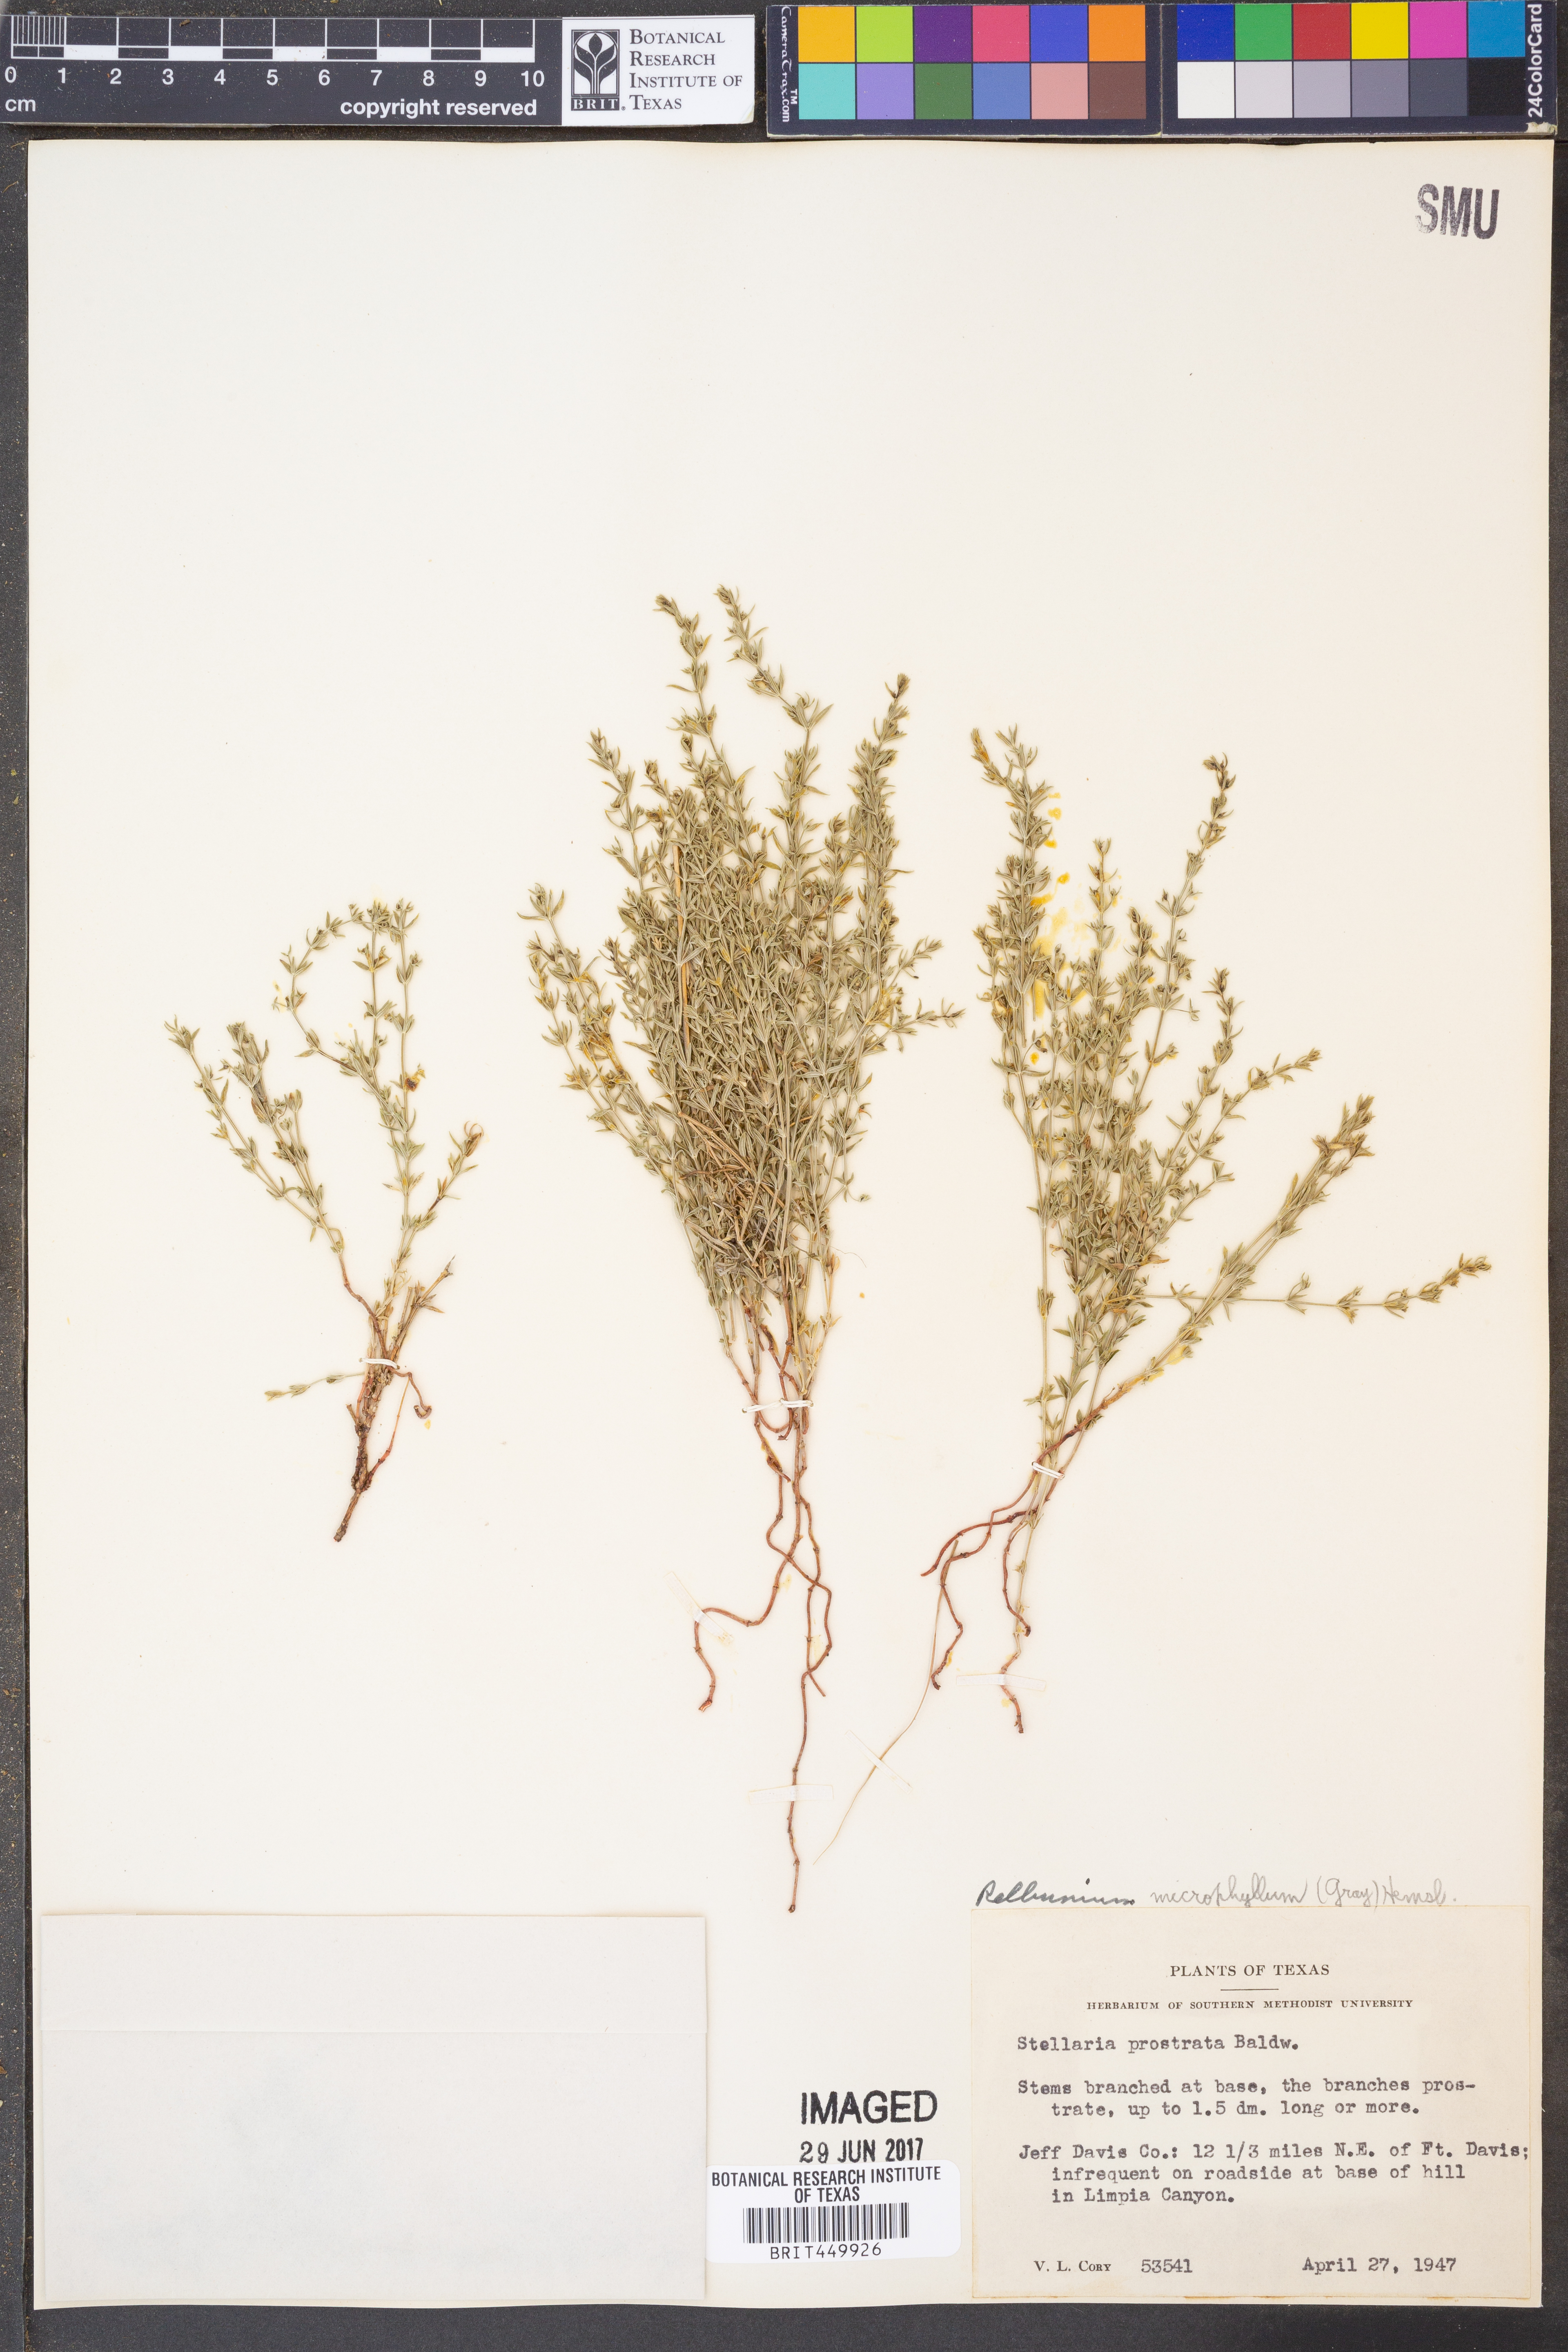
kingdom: Plantae
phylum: Tracheophyta
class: Magnoliopsida
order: Caryophyllales
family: Caryophyllaceae
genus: Stellaria
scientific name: Stellaria cuspidata
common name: Mexican chickweed
